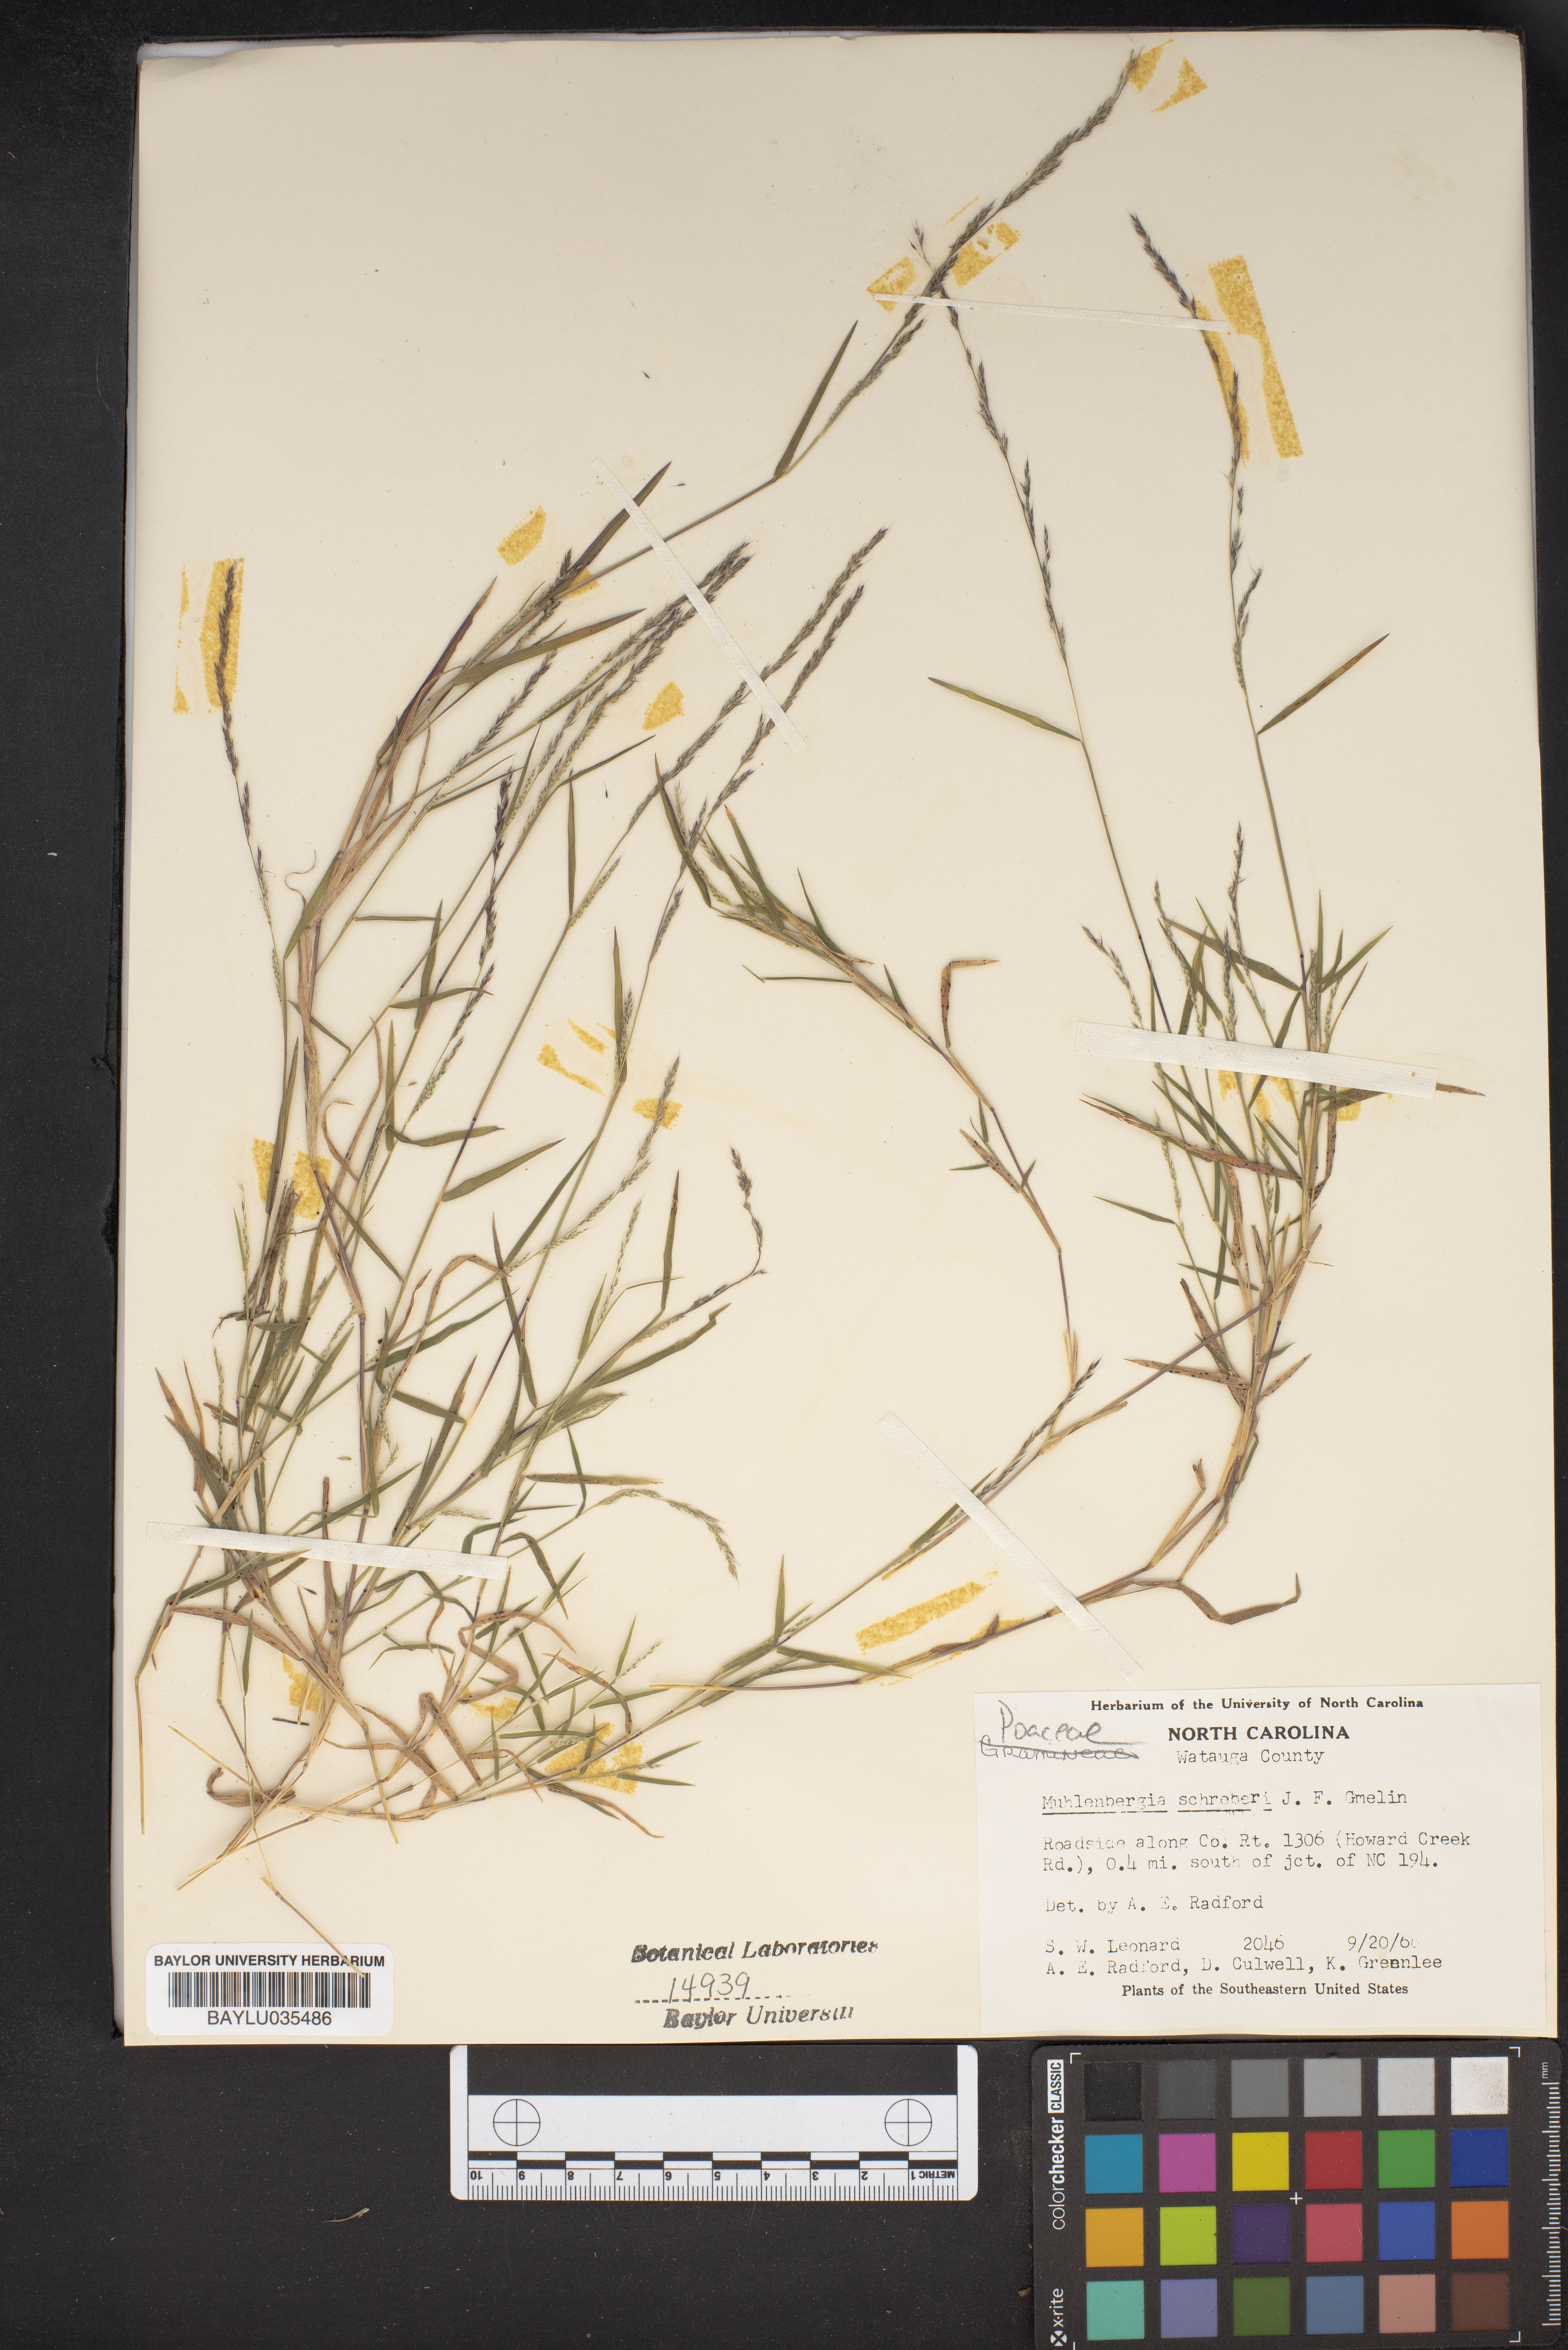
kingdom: Plantae
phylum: Tracheophyta
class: Liliopsida
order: Poales
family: Poaceae
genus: Muhlenbergia
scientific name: Muhlenbergia schreberi
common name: Nimblewill
